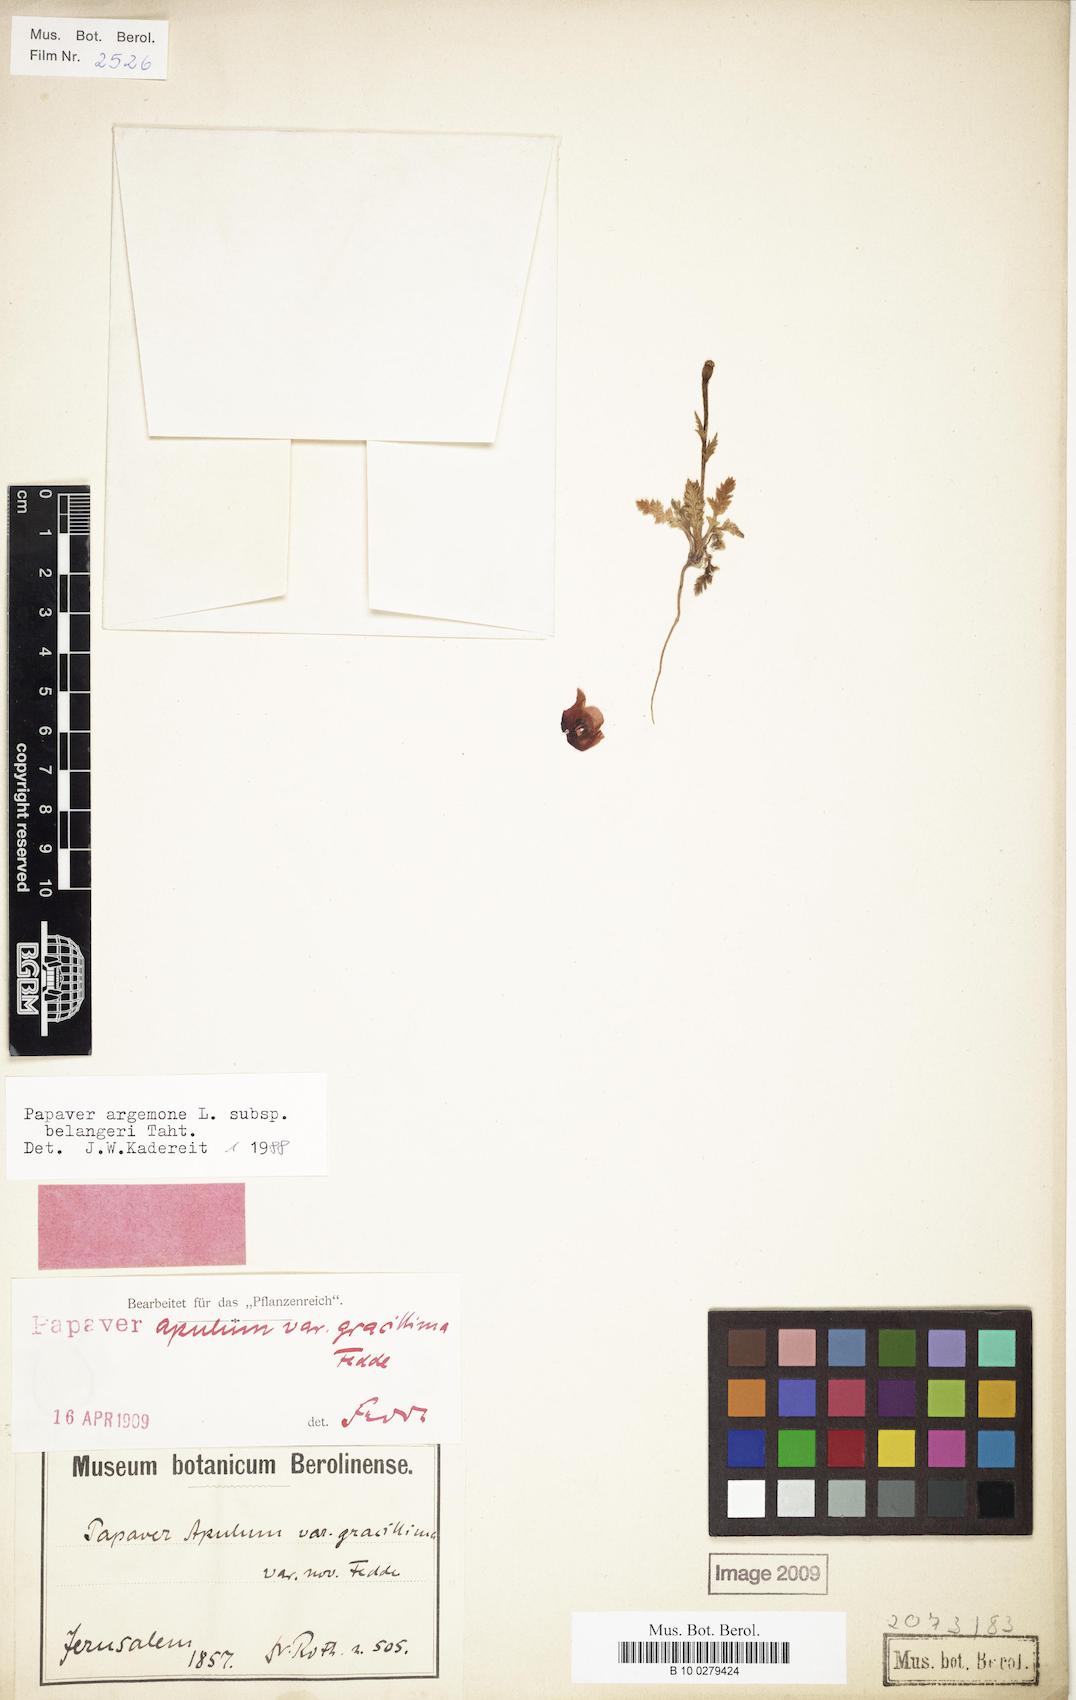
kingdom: Plantae
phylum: Tracheophyta
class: Magnoliopsida
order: Ranunculales
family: Papaveraceae
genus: Roemeria
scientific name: Roemeria minor
